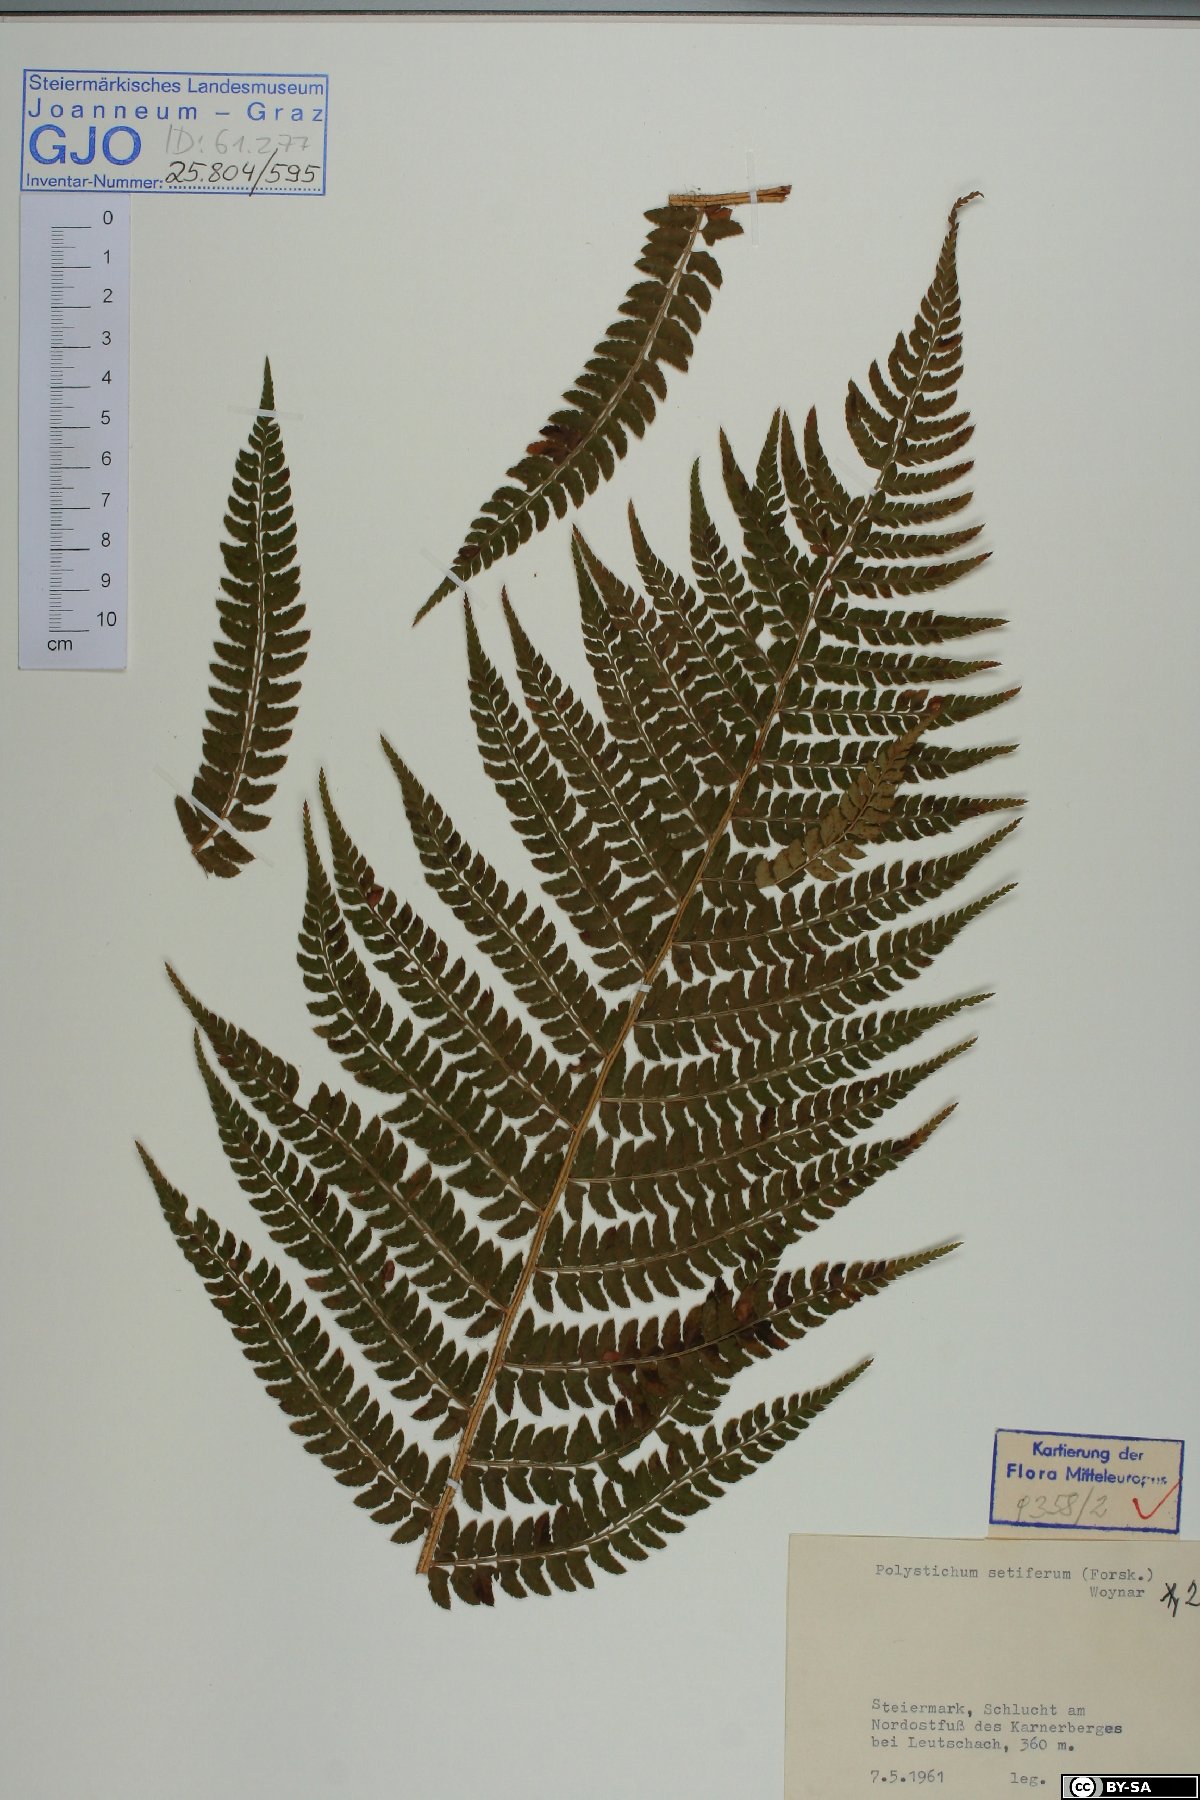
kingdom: Plantae
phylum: Tracheophyta
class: Polypodiopsida
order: Polypodiales
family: Dryopteridaceae
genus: Polystichum
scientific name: Polystichum setiferum
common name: Soft shield-fern
